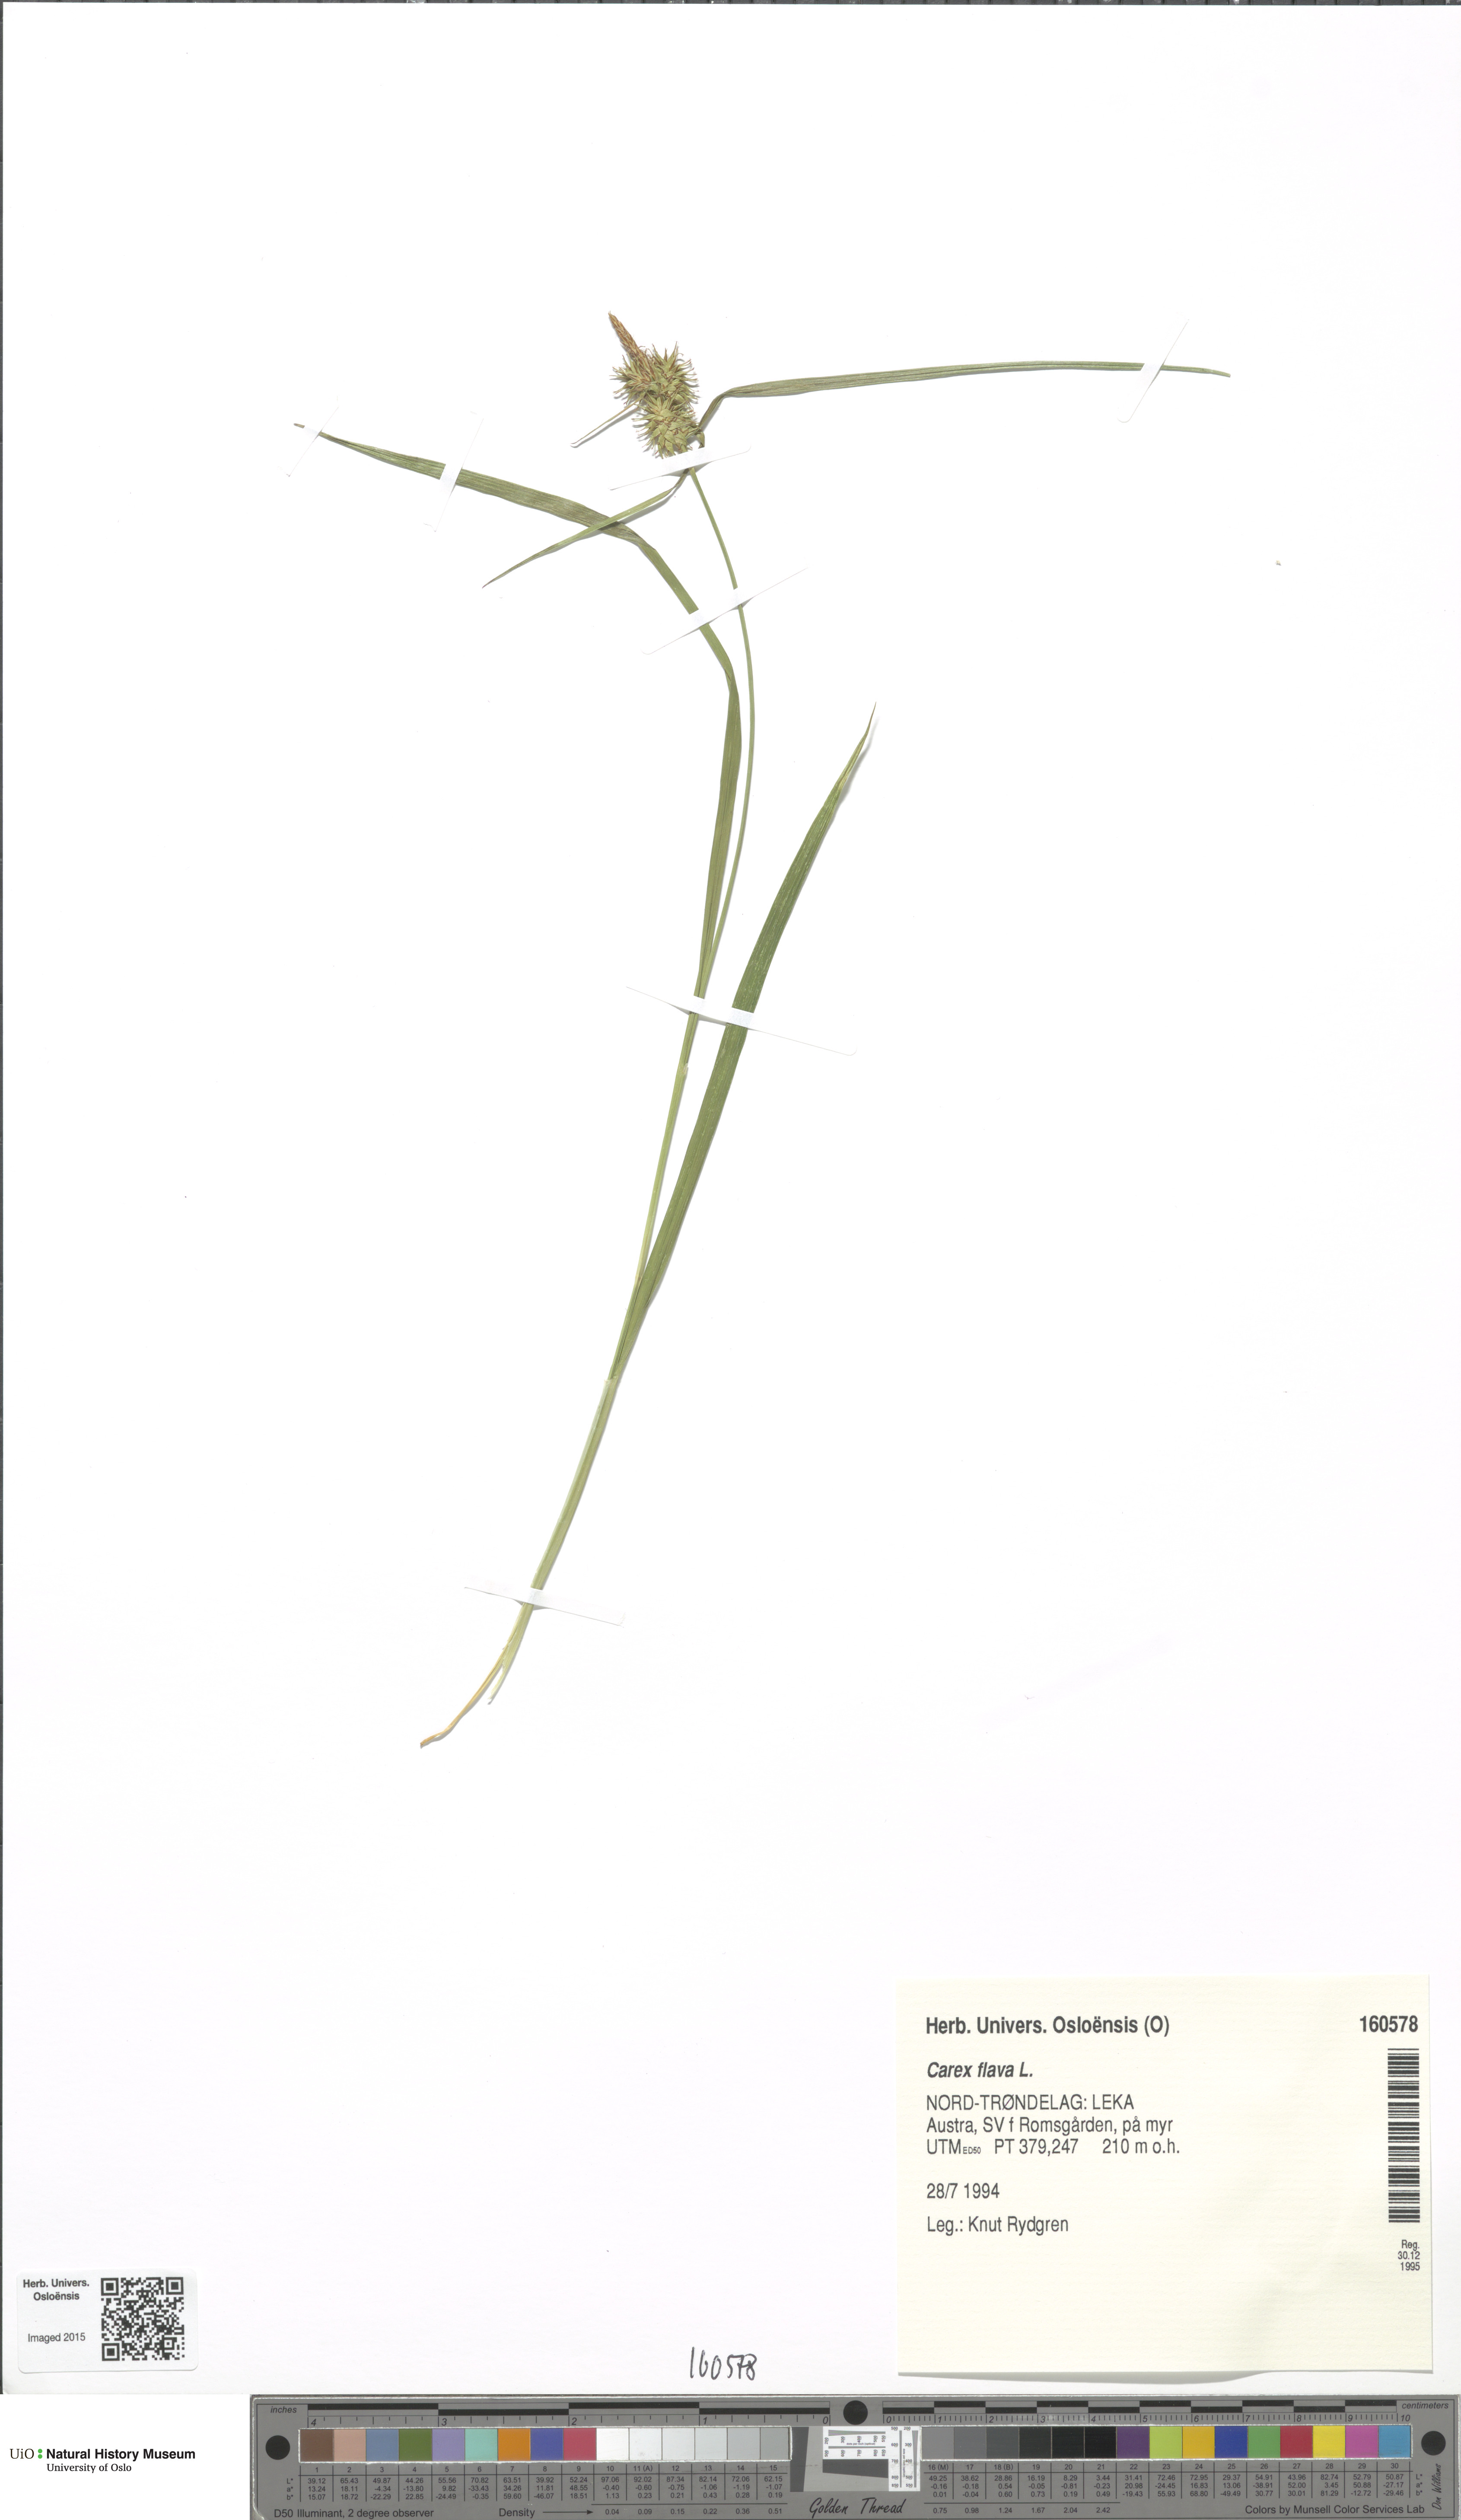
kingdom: Plantae
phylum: Tracheophyta
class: Liliopsida
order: Poales
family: Cyperaceae
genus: Carex
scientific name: Carex flava
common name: Large yellow-sedge
